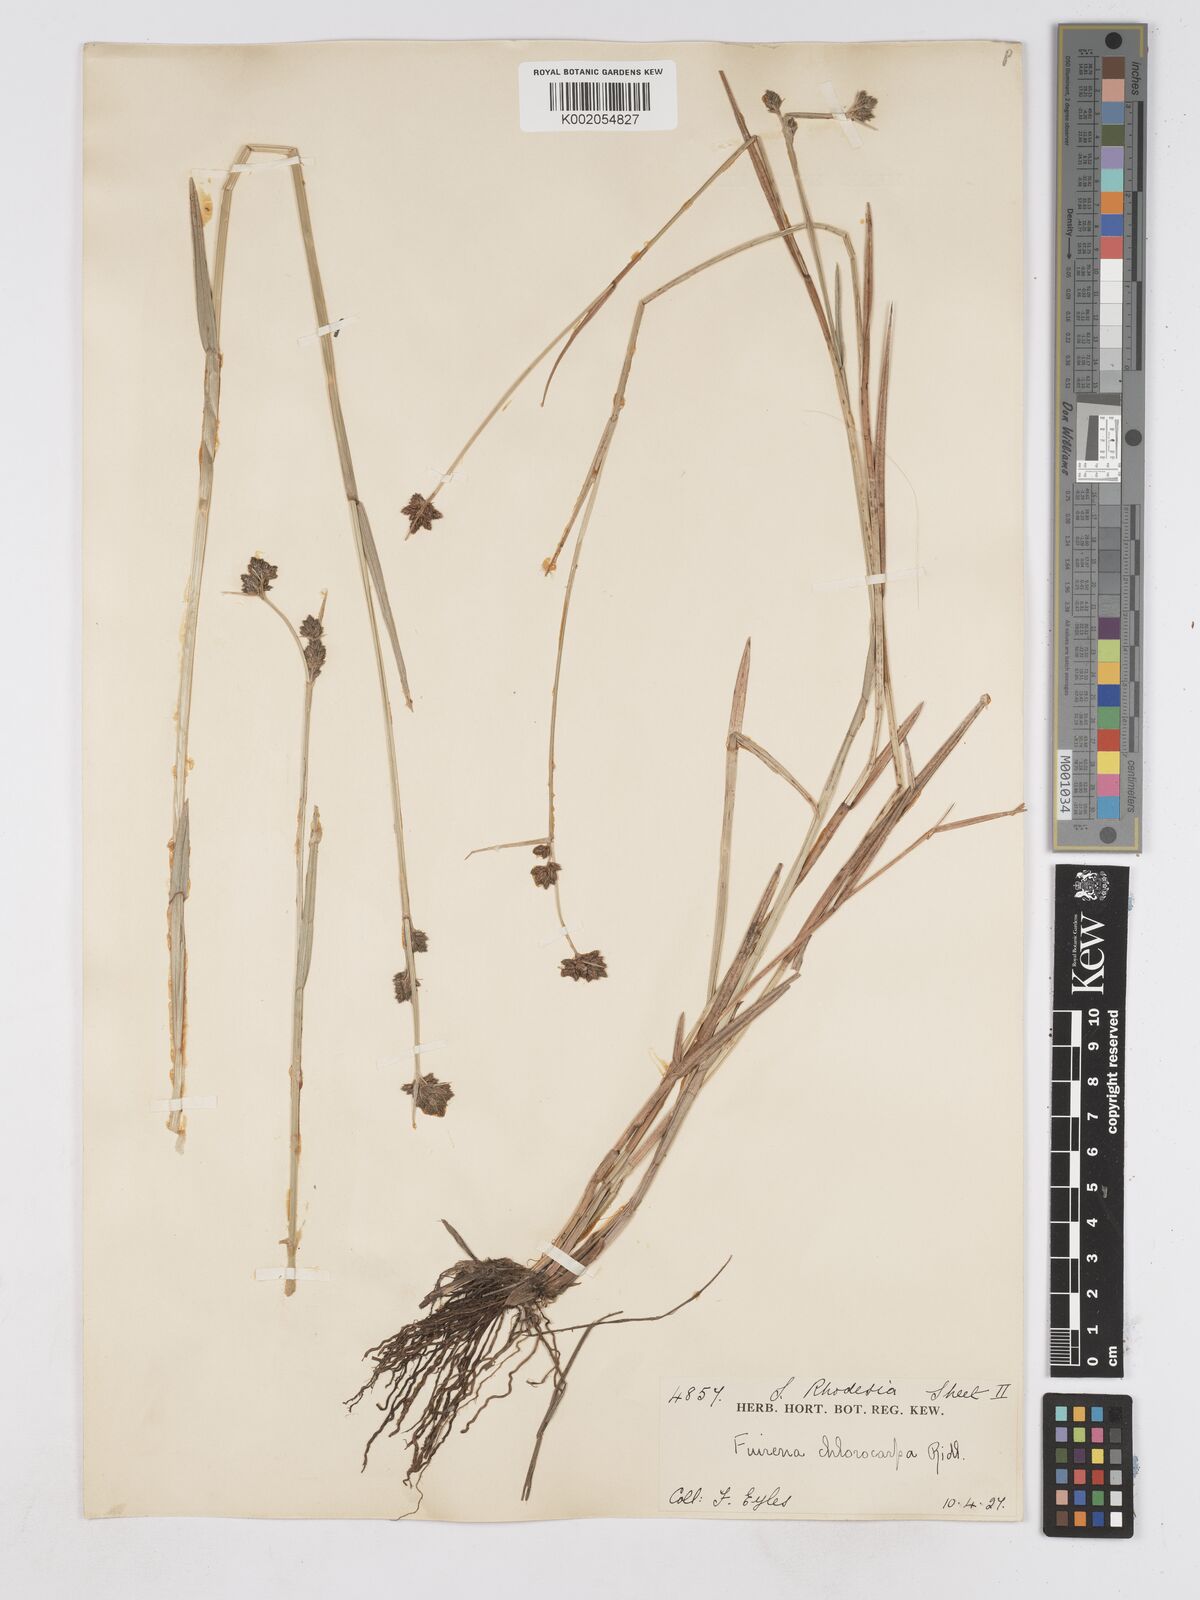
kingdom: Plantae
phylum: Tracheophyta
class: Liliopsida
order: Poales
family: Cyperaceae
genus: Fuirena
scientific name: Fuirena stricta
